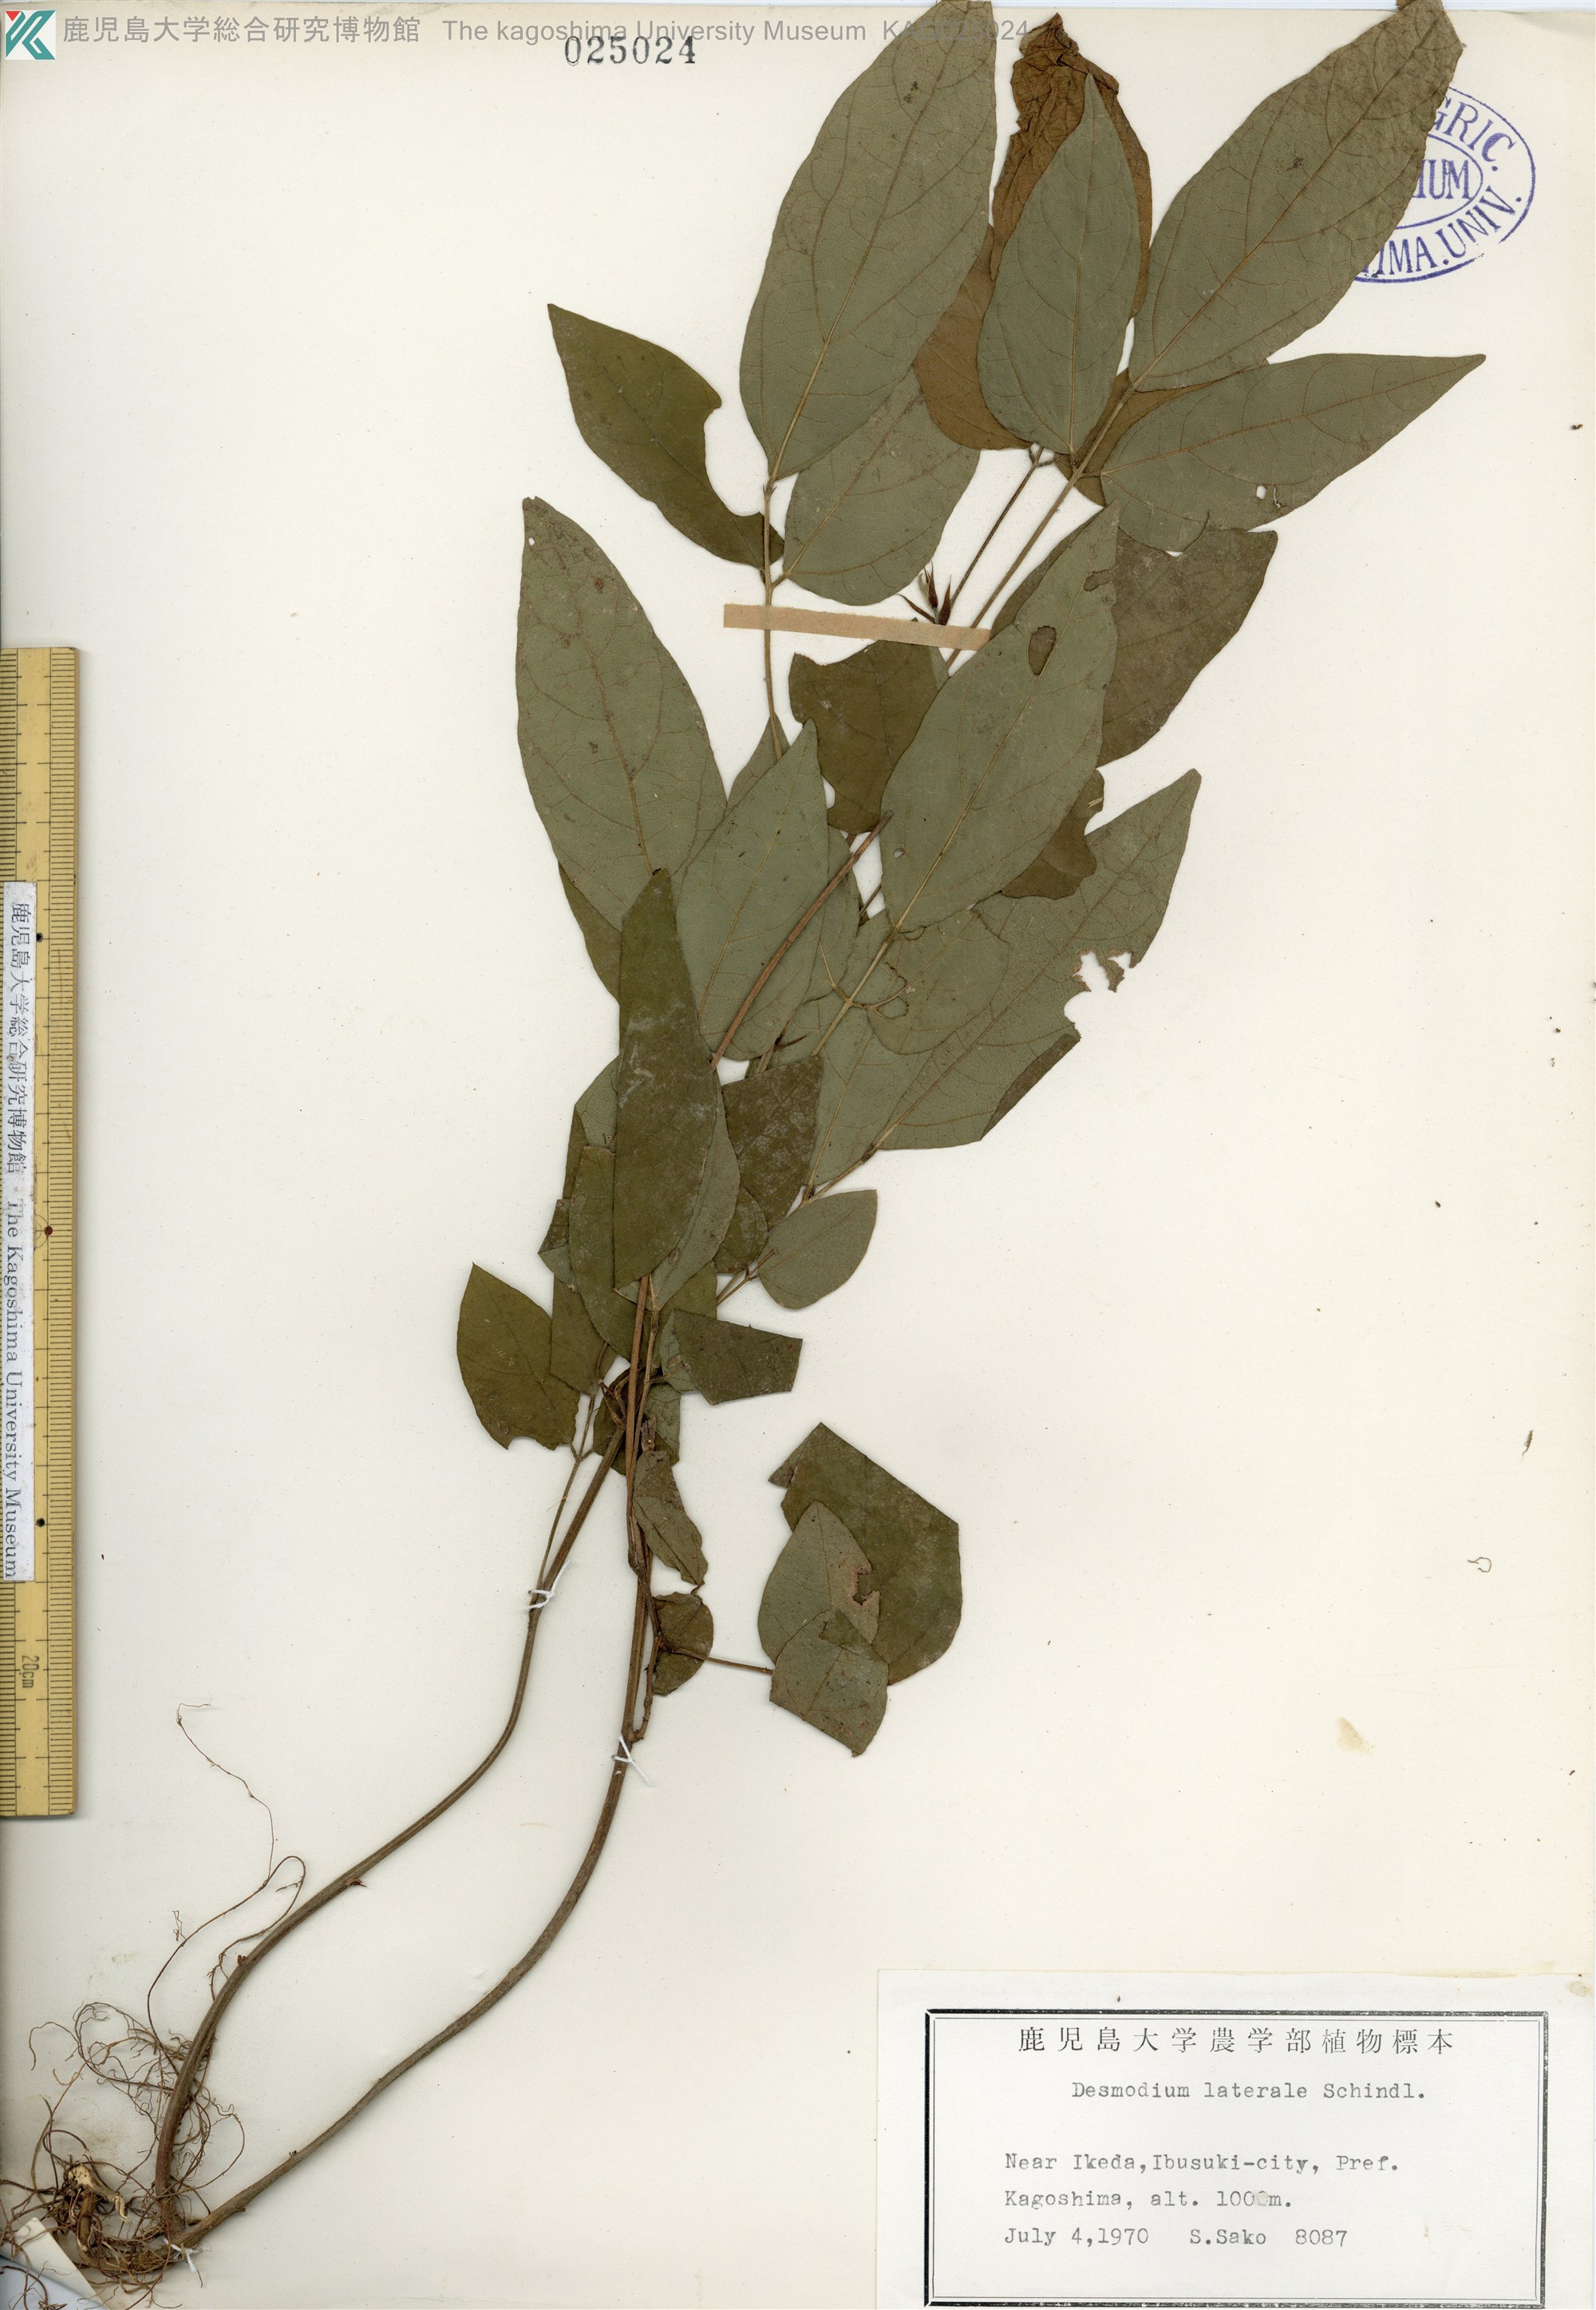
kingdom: Plantae
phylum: Tracheophyta
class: Magnoliopsida
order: Fabales
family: Fabaceae
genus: Hylodesmum
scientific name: Hylodesmum laterale
